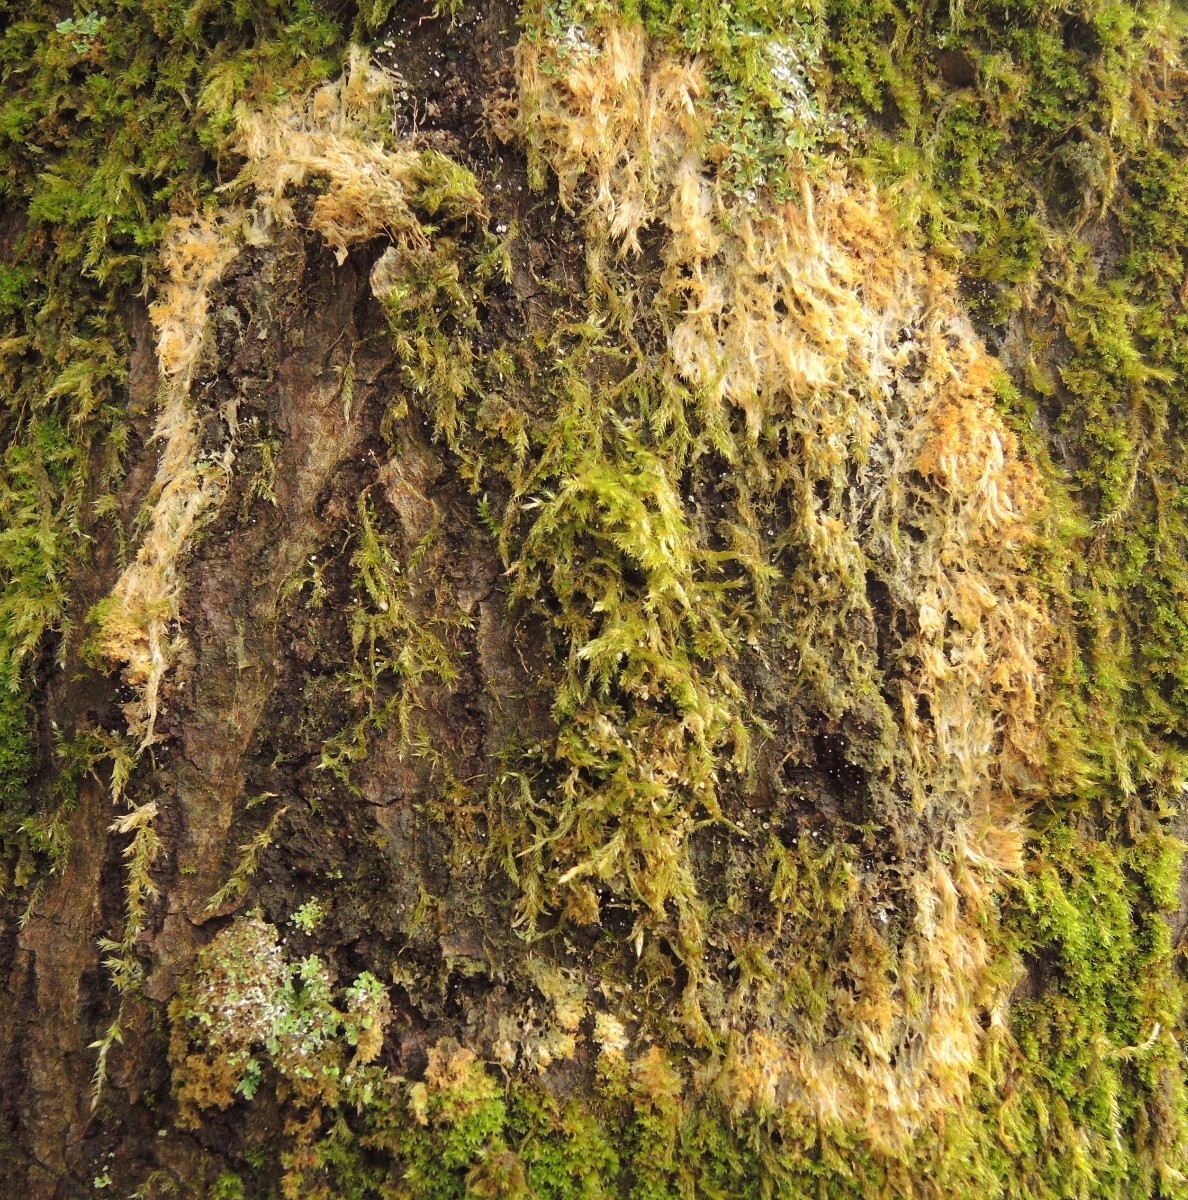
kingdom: Fungi
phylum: Basidiomycota
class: Agaricomycetes
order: Agaricales
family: Chromocyphellaceae
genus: Chromocyphella
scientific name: Chromocyphella muscicola
